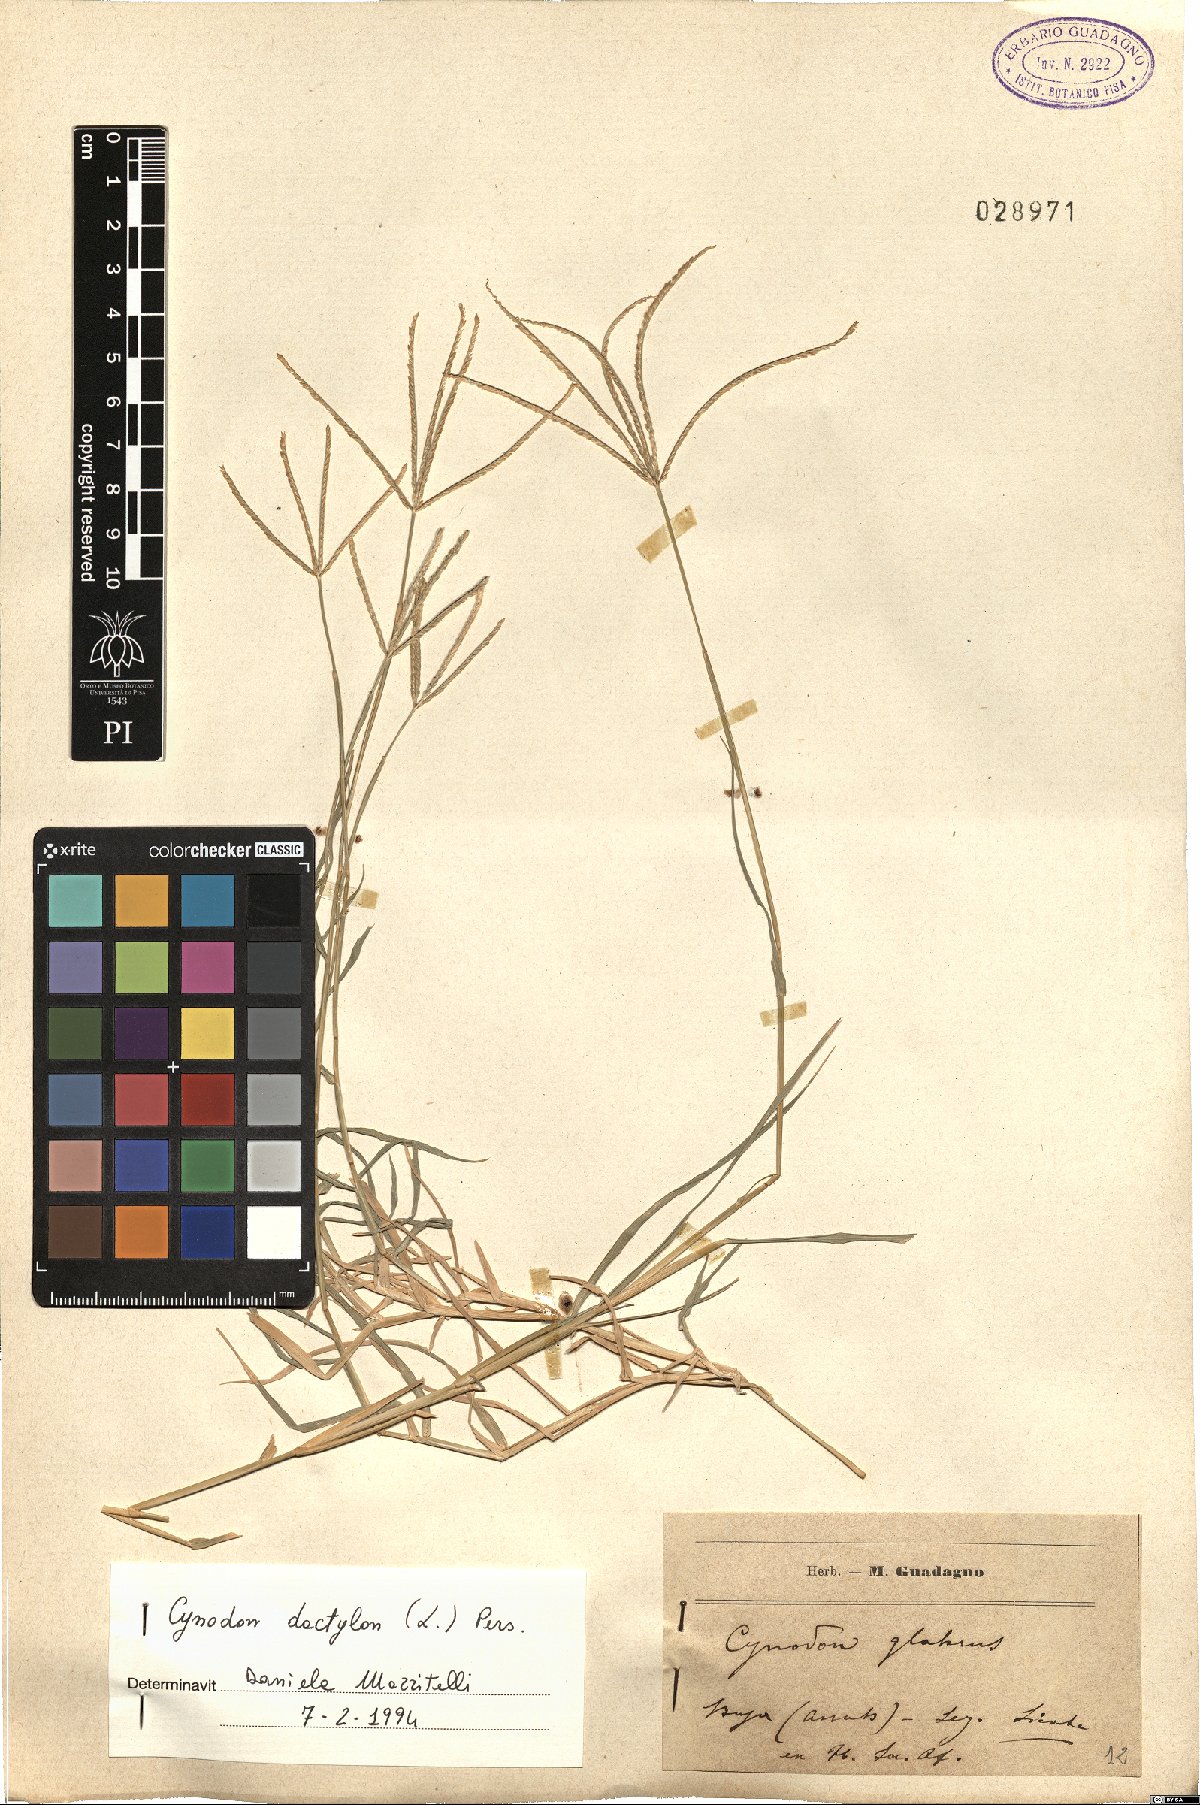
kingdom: Plantae
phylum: Tracheophyta
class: Liliopsida
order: Poales
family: Poaceae
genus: Cynodon
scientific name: Cynodon dactylon
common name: Bermuda grass
